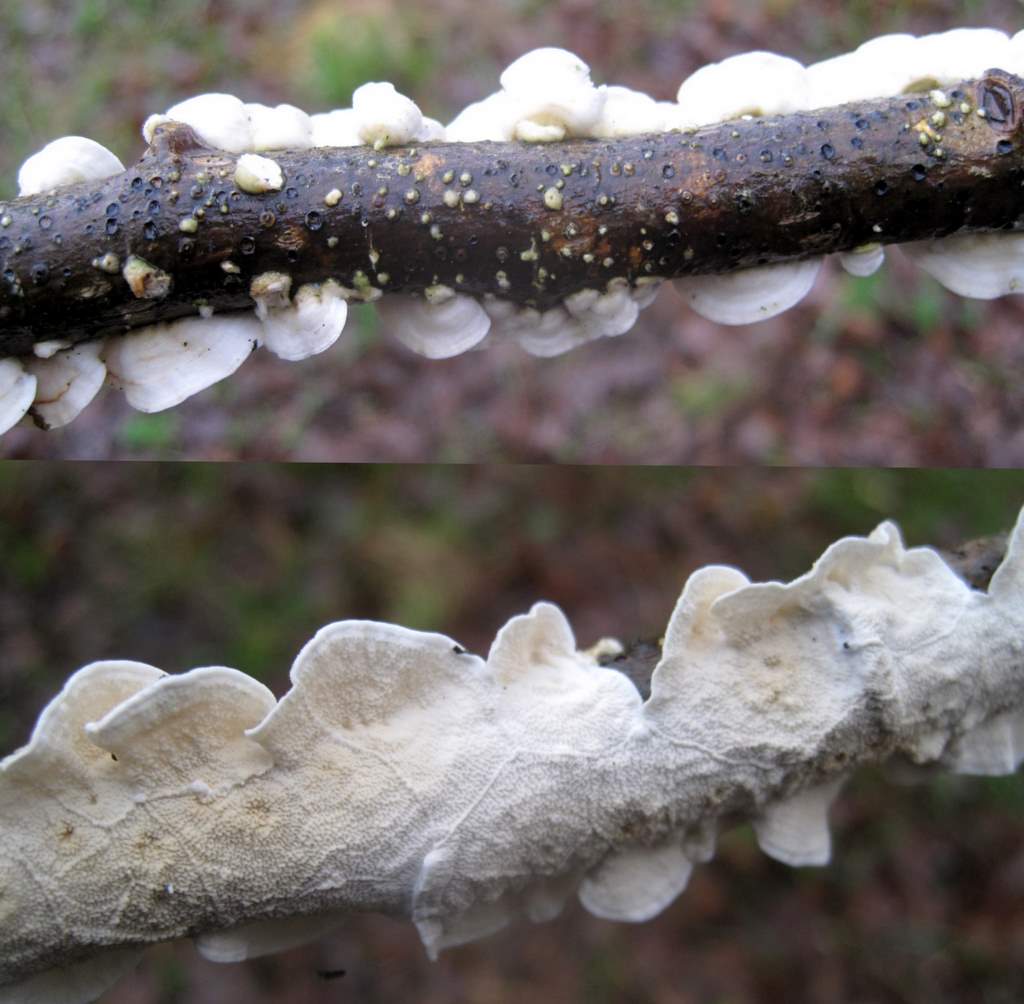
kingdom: Fungi
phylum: Basidiomycota
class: Agaricomycetes
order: Polyporales
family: Irpicaceae
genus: Byssomerulius
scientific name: Byssomerulius corium
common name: læder-åresvamp
